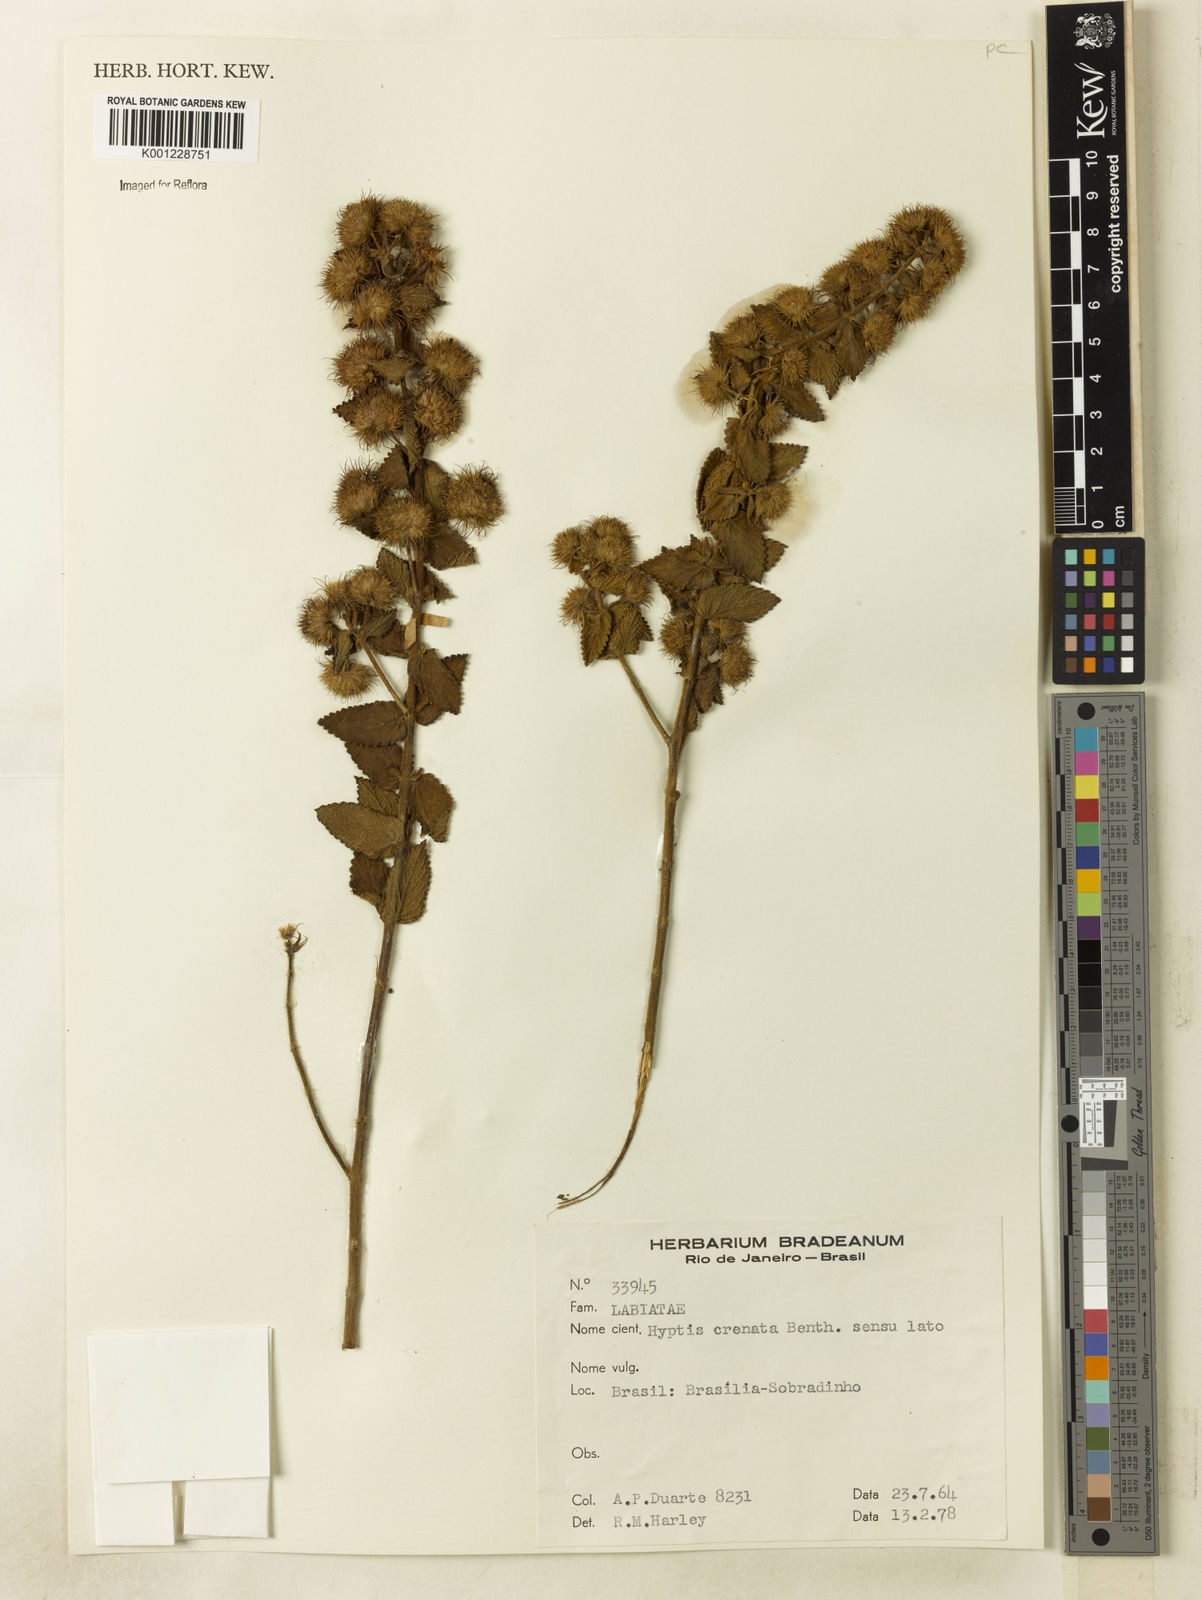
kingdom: Plantae
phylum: Tracheophyta
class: Magnoliopsida
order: Lamiales
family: Lamiaceae
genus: Hyptis
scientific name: Hyptis crenata
